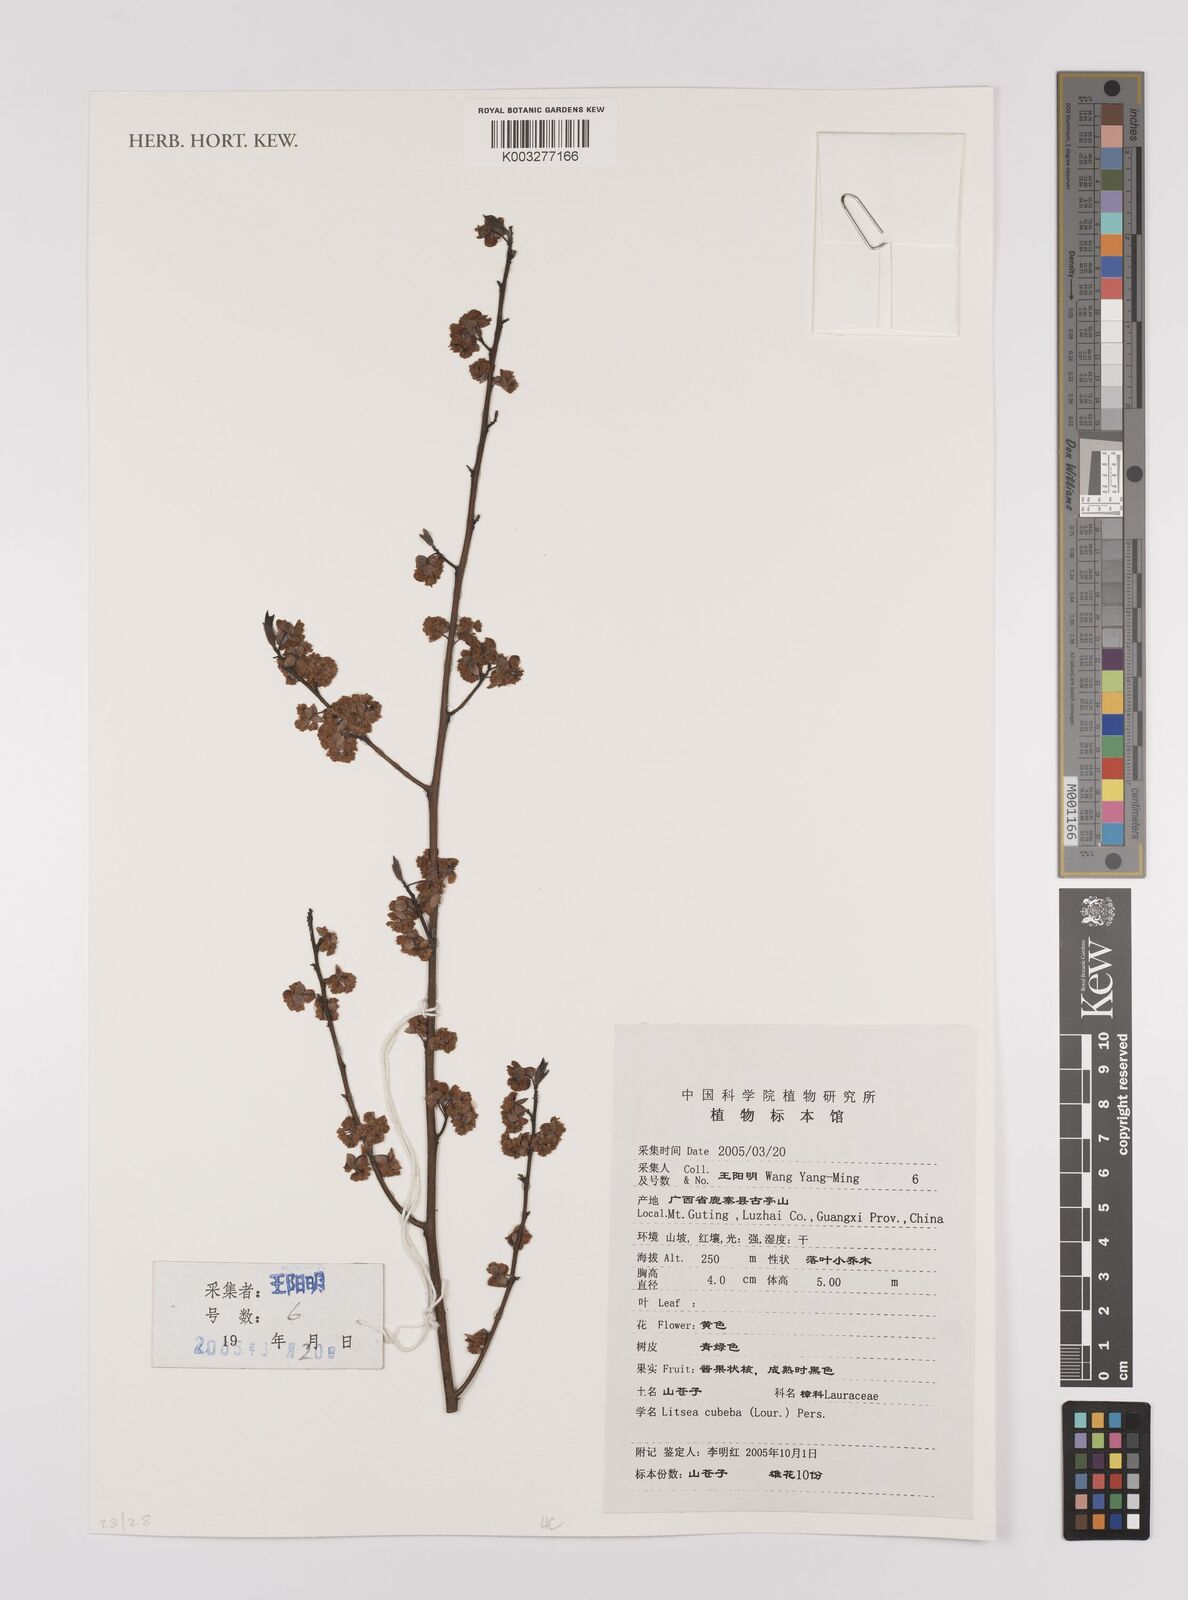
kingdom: Plantae
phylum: Tracheophyta
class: Magnoliopsida
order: Laurales
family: Lauraceae
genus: Litsea
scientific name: Litsea cubeba
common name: Mountain-pepper
